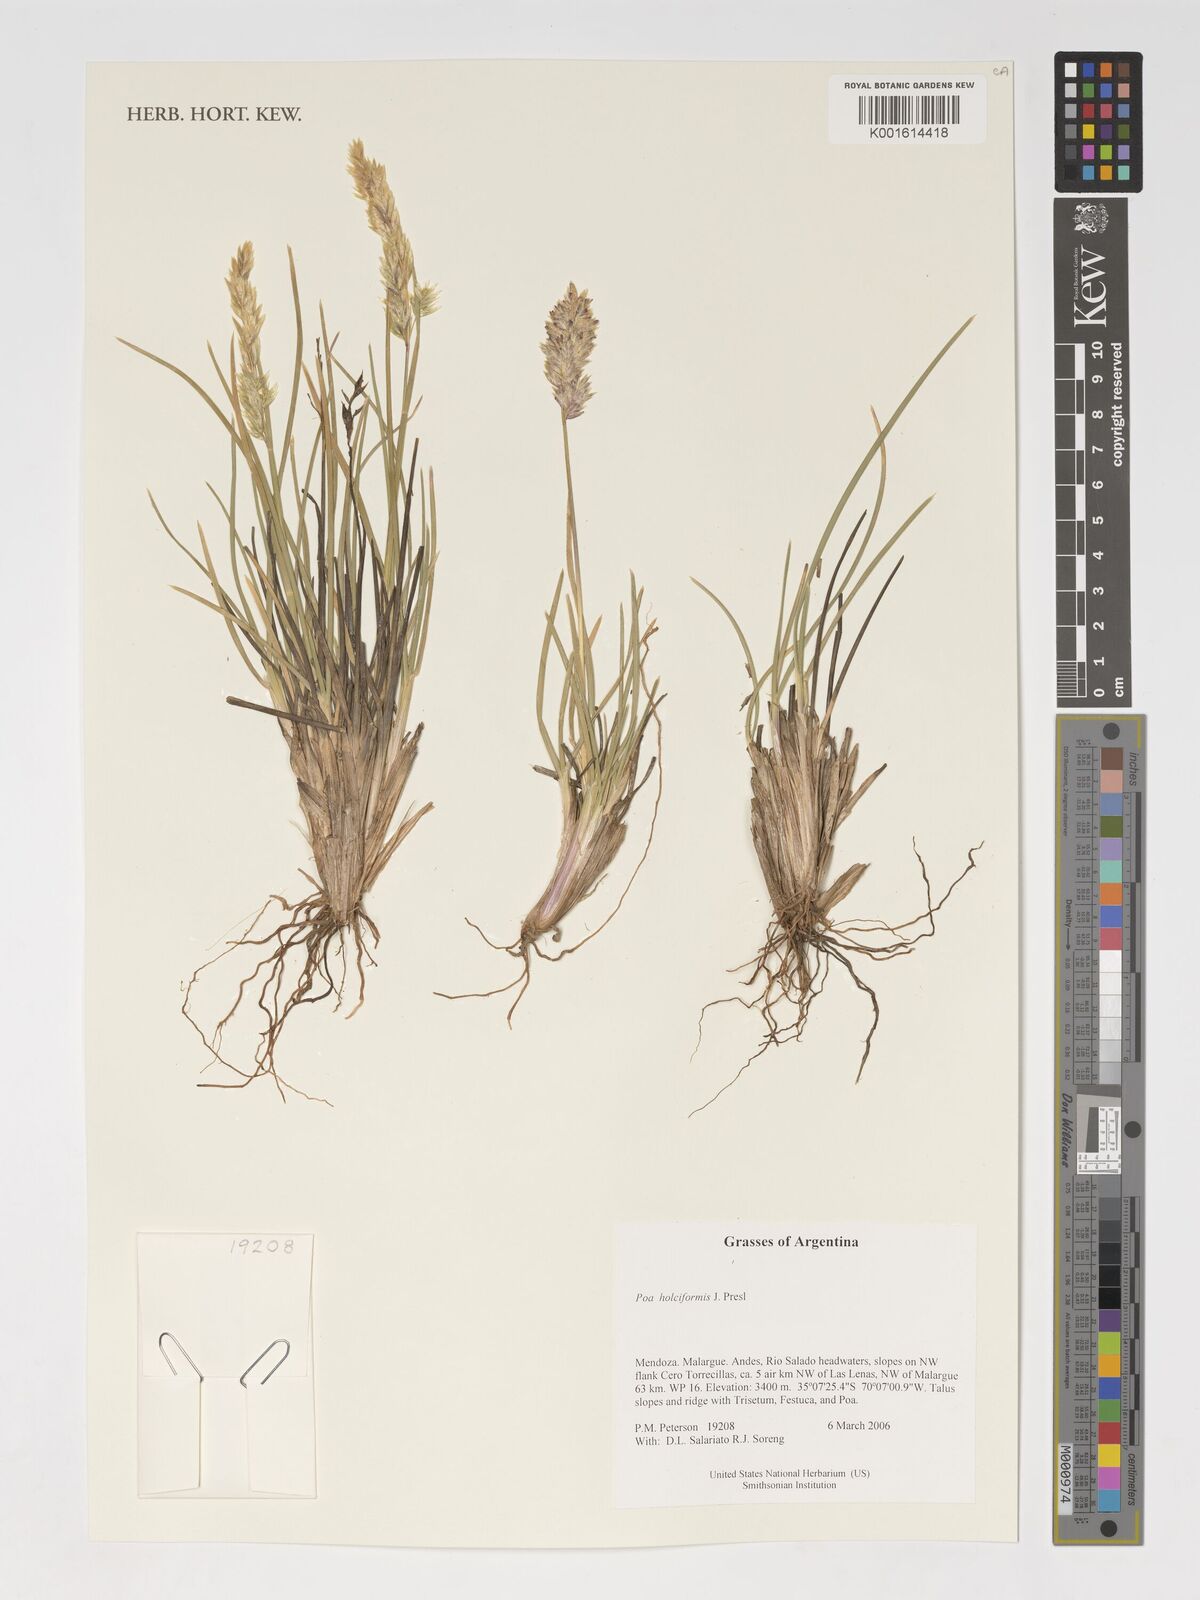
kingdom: Plantae
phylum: Tracheophyta
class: Liliopsida
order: Poales
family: Poaceae
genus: Poa
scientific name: Poa holciformis
